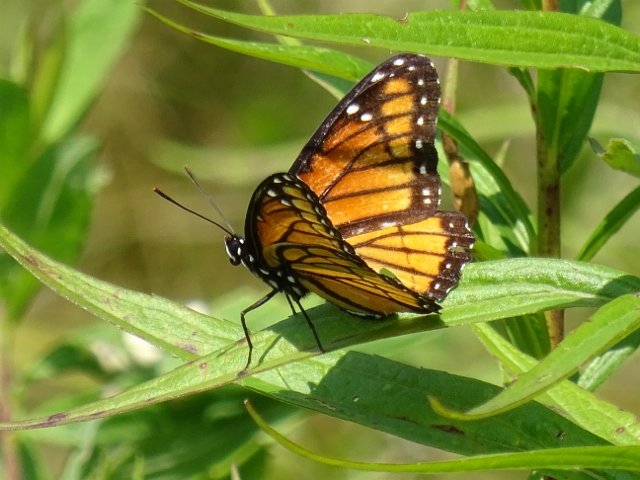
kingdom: Animalia
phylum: Arthropoda
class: Insecta
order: Lepidoptera
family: Nymphalidae
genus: Limenitis
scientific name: Limenitis archippus
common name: Viceroy
